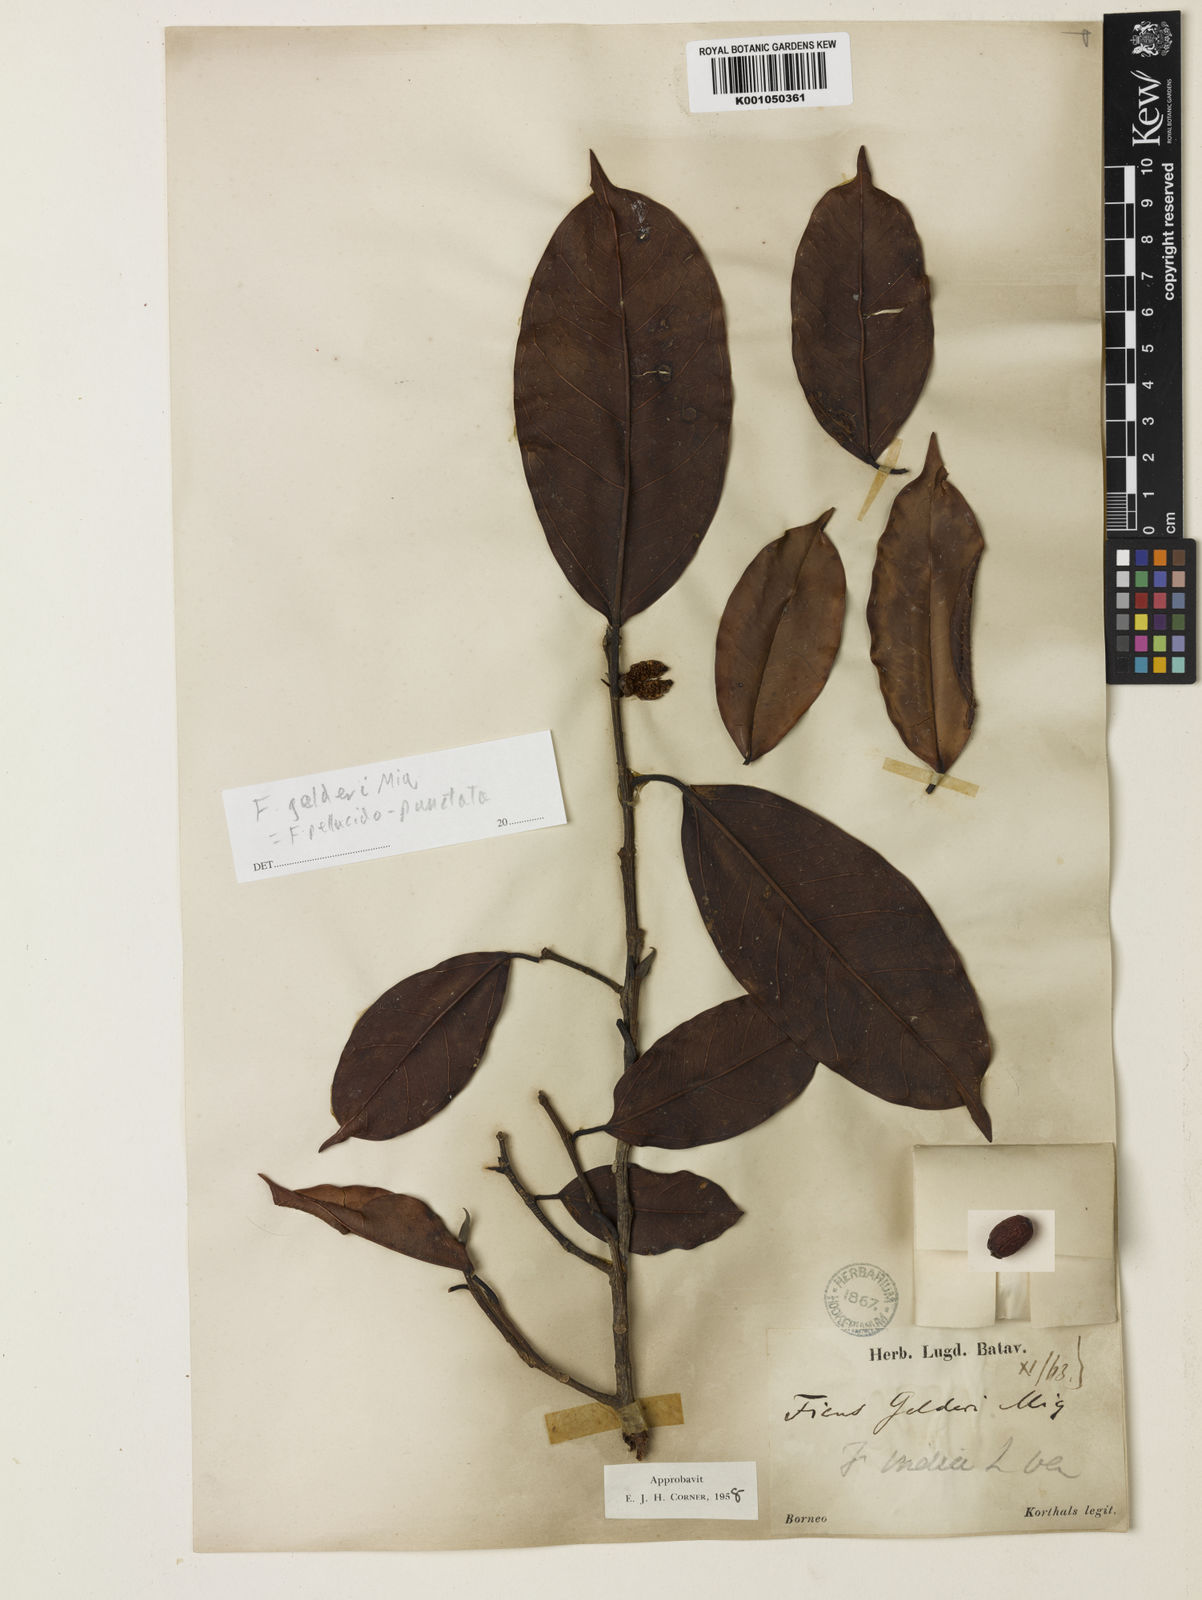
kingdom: Plantae
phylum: Tracheophyta
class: Magnoliopsida
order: Rosales
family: Moraceae
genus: Ficus
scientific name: Ficus pellucidopunctata
